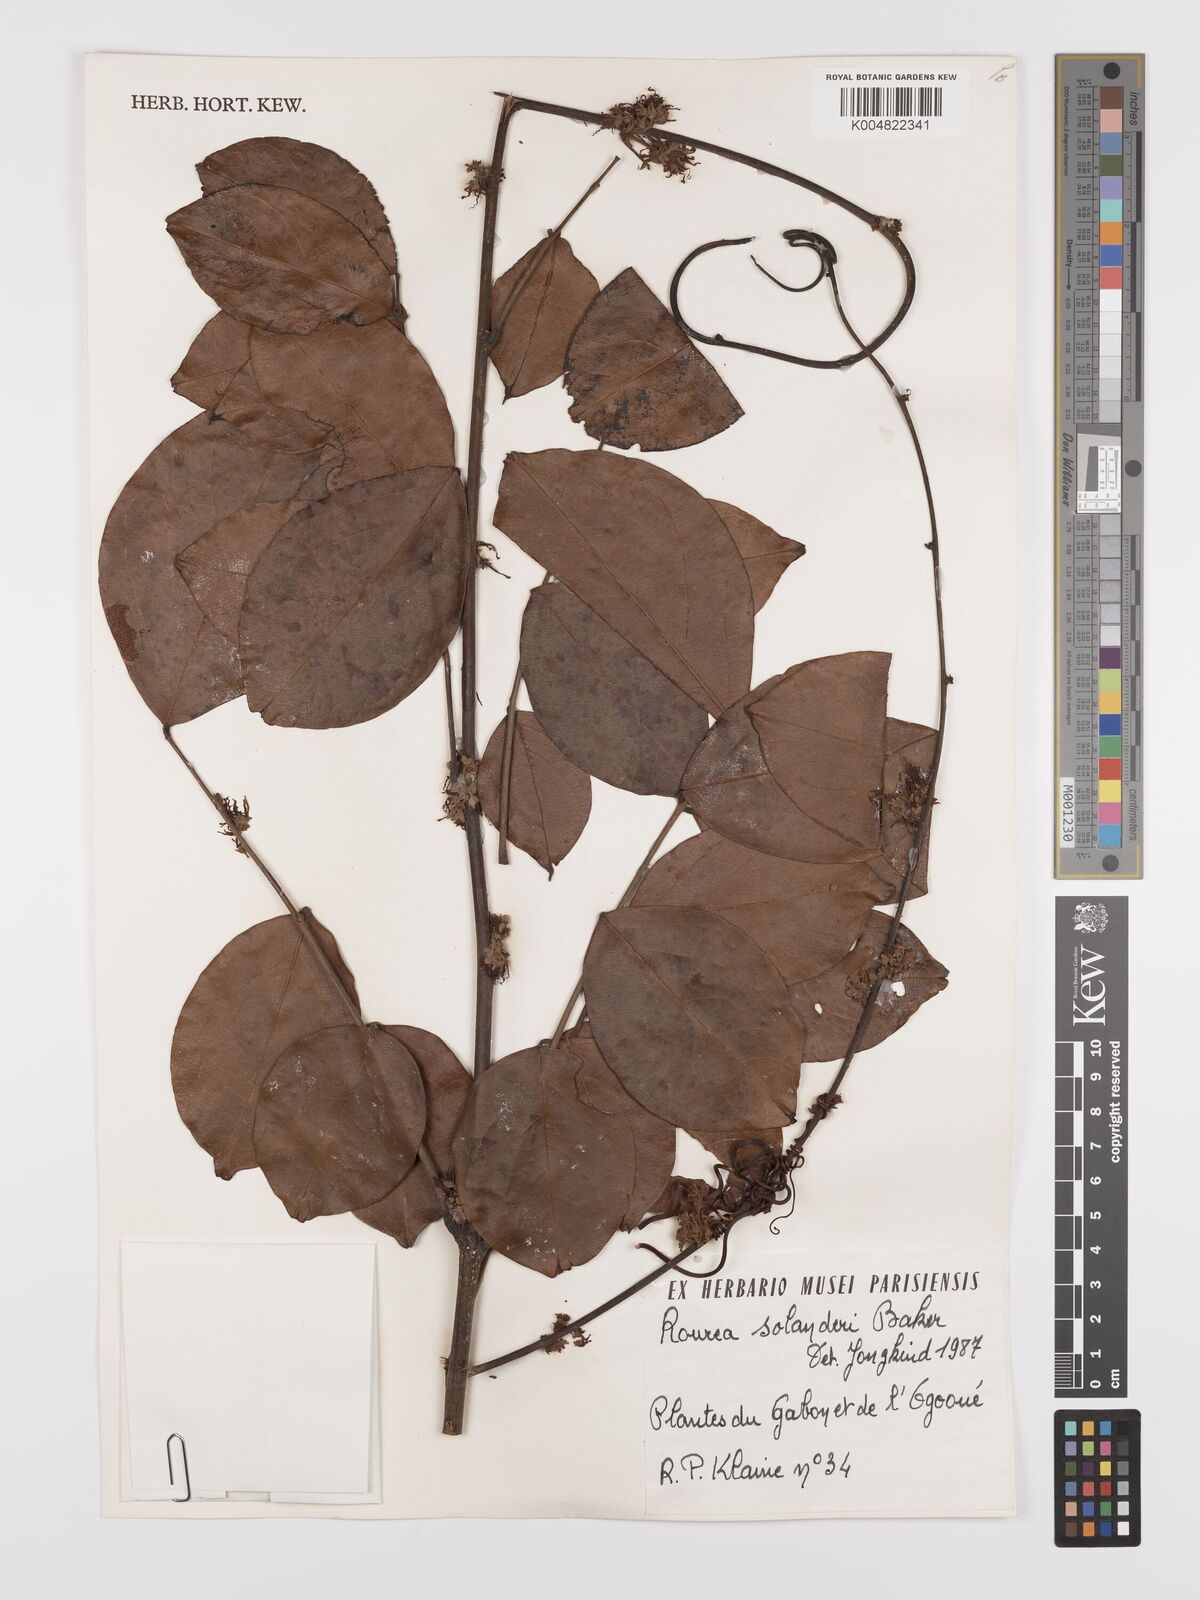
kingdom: Plantae
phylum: Tracheophyta
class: Magnoliopsida
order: Oxalidales
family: Connaraceae
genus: Rourea
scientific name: Rourea solanderi
